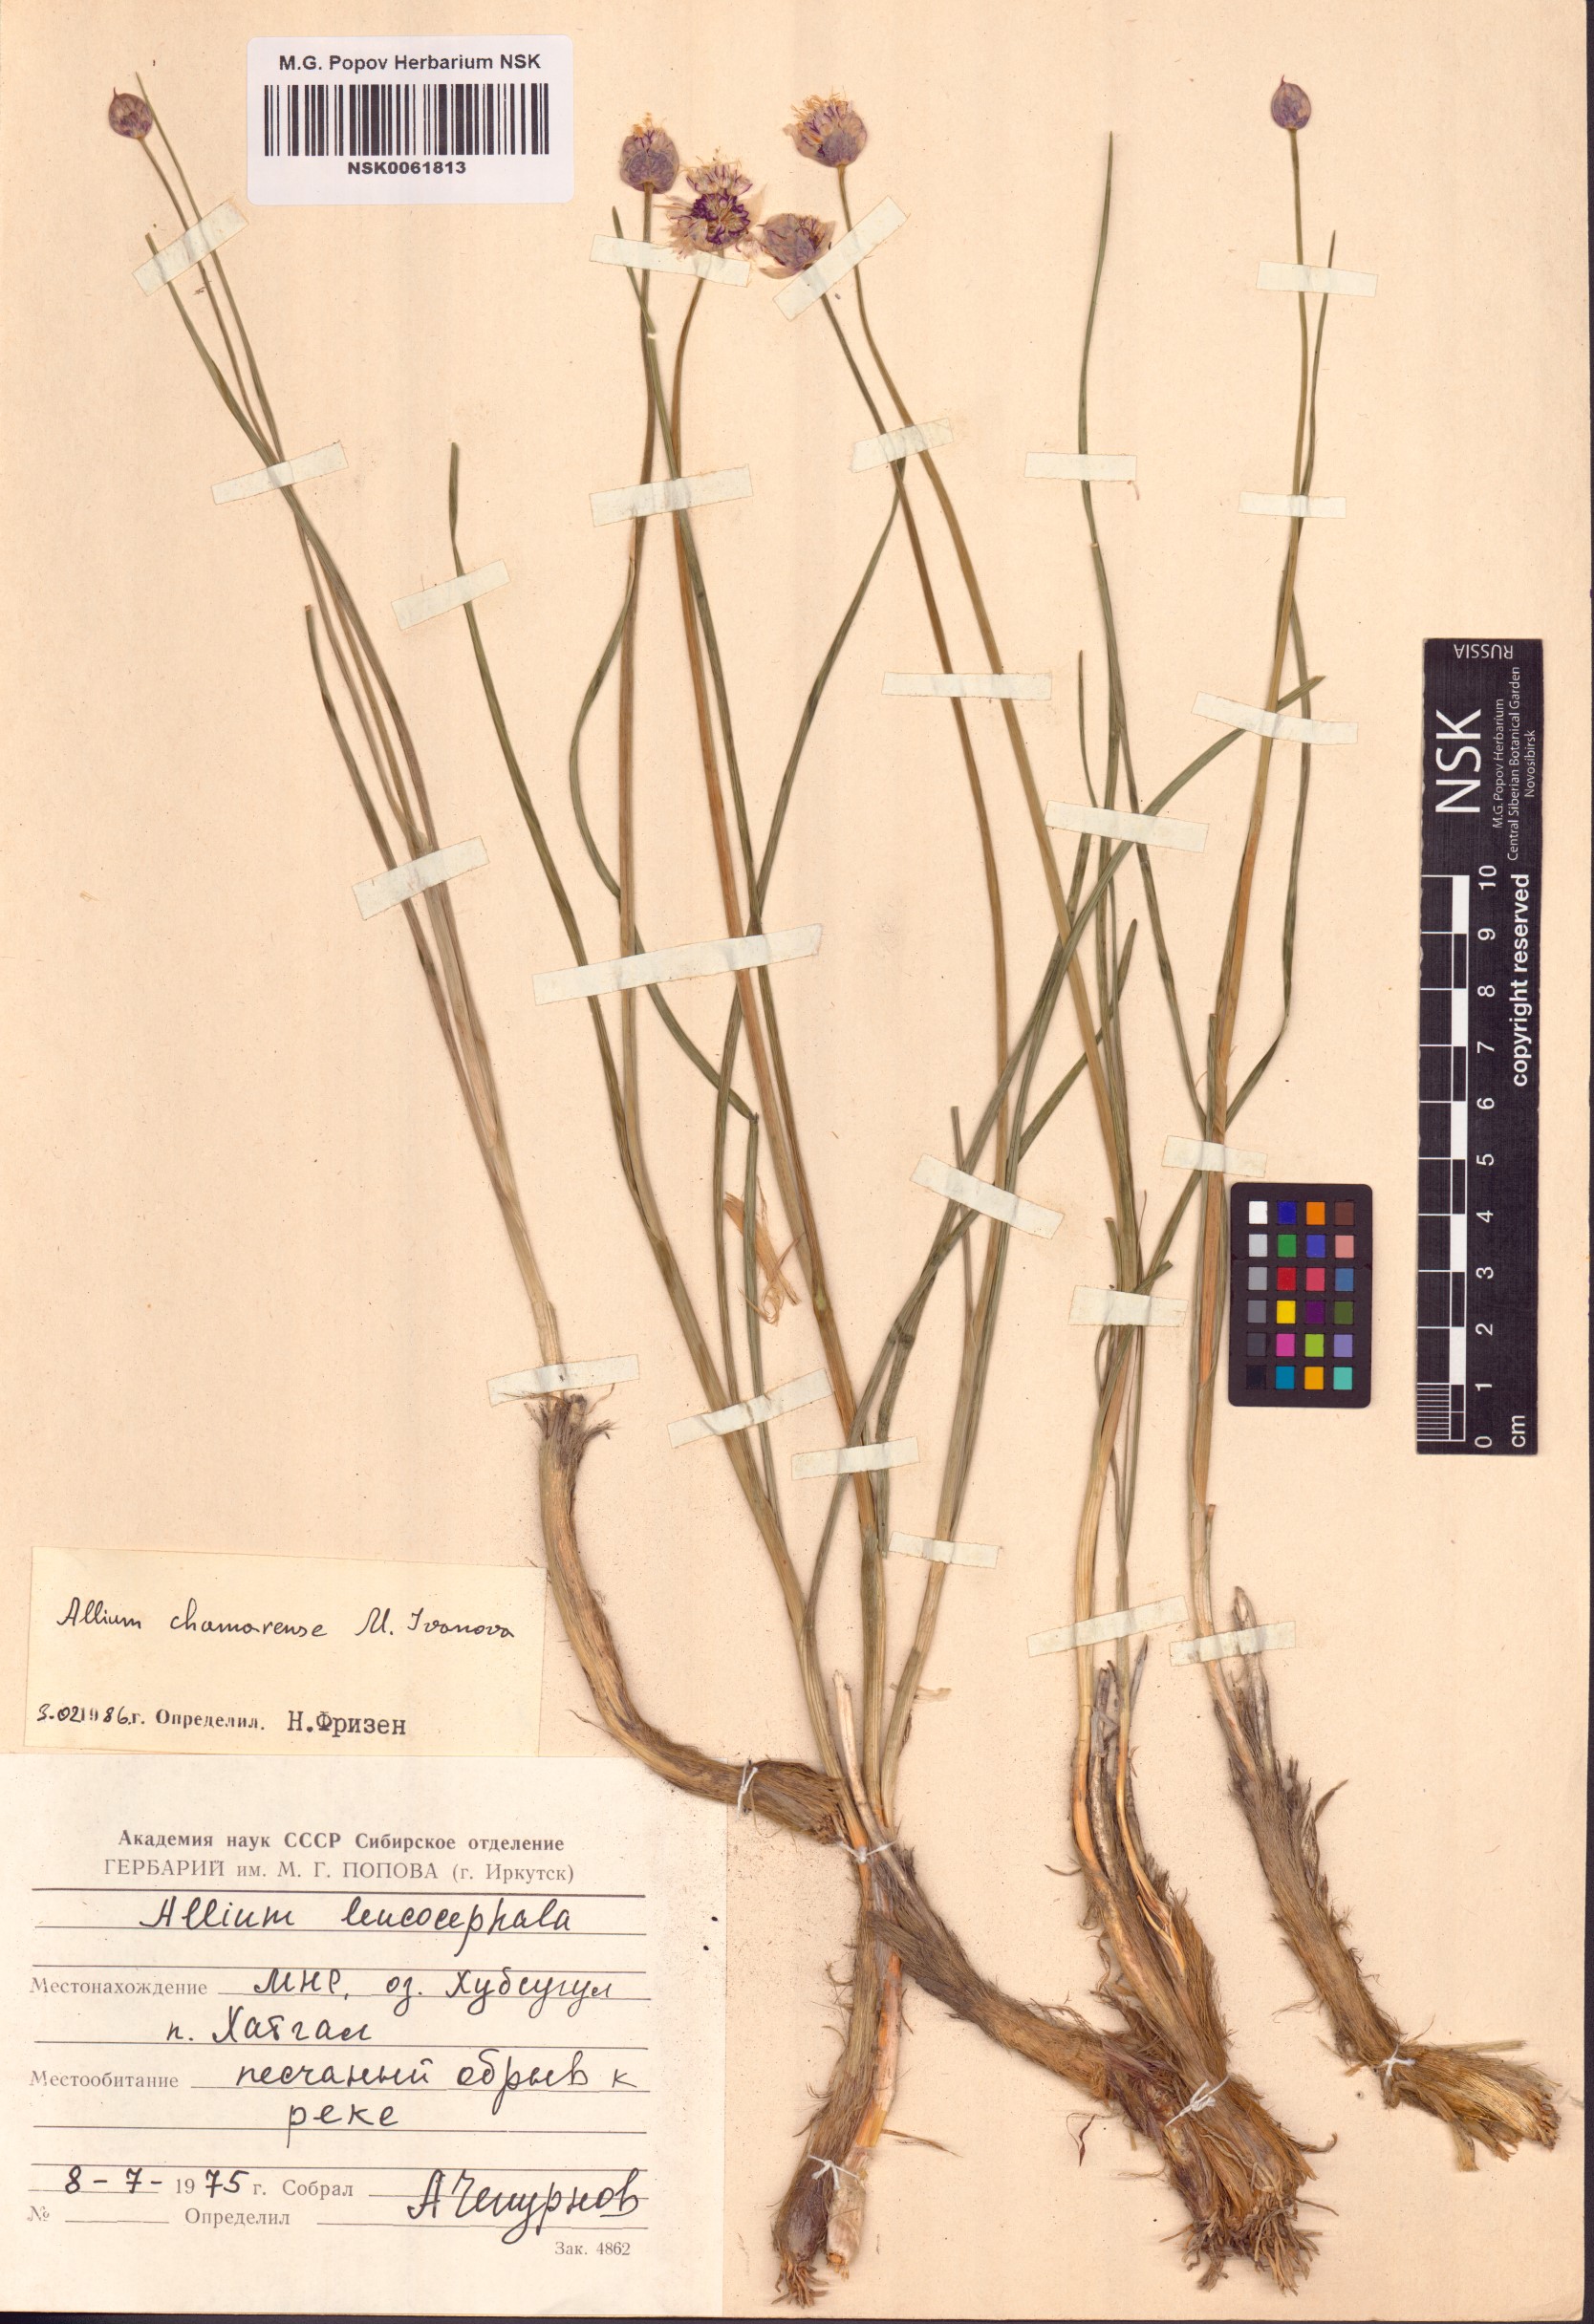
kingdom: Plantae
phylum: Tracheophyta
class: Liliopsida
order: Asparagales
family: Amaryllidaceae
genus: Allium
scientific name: Allium leucocephalum
